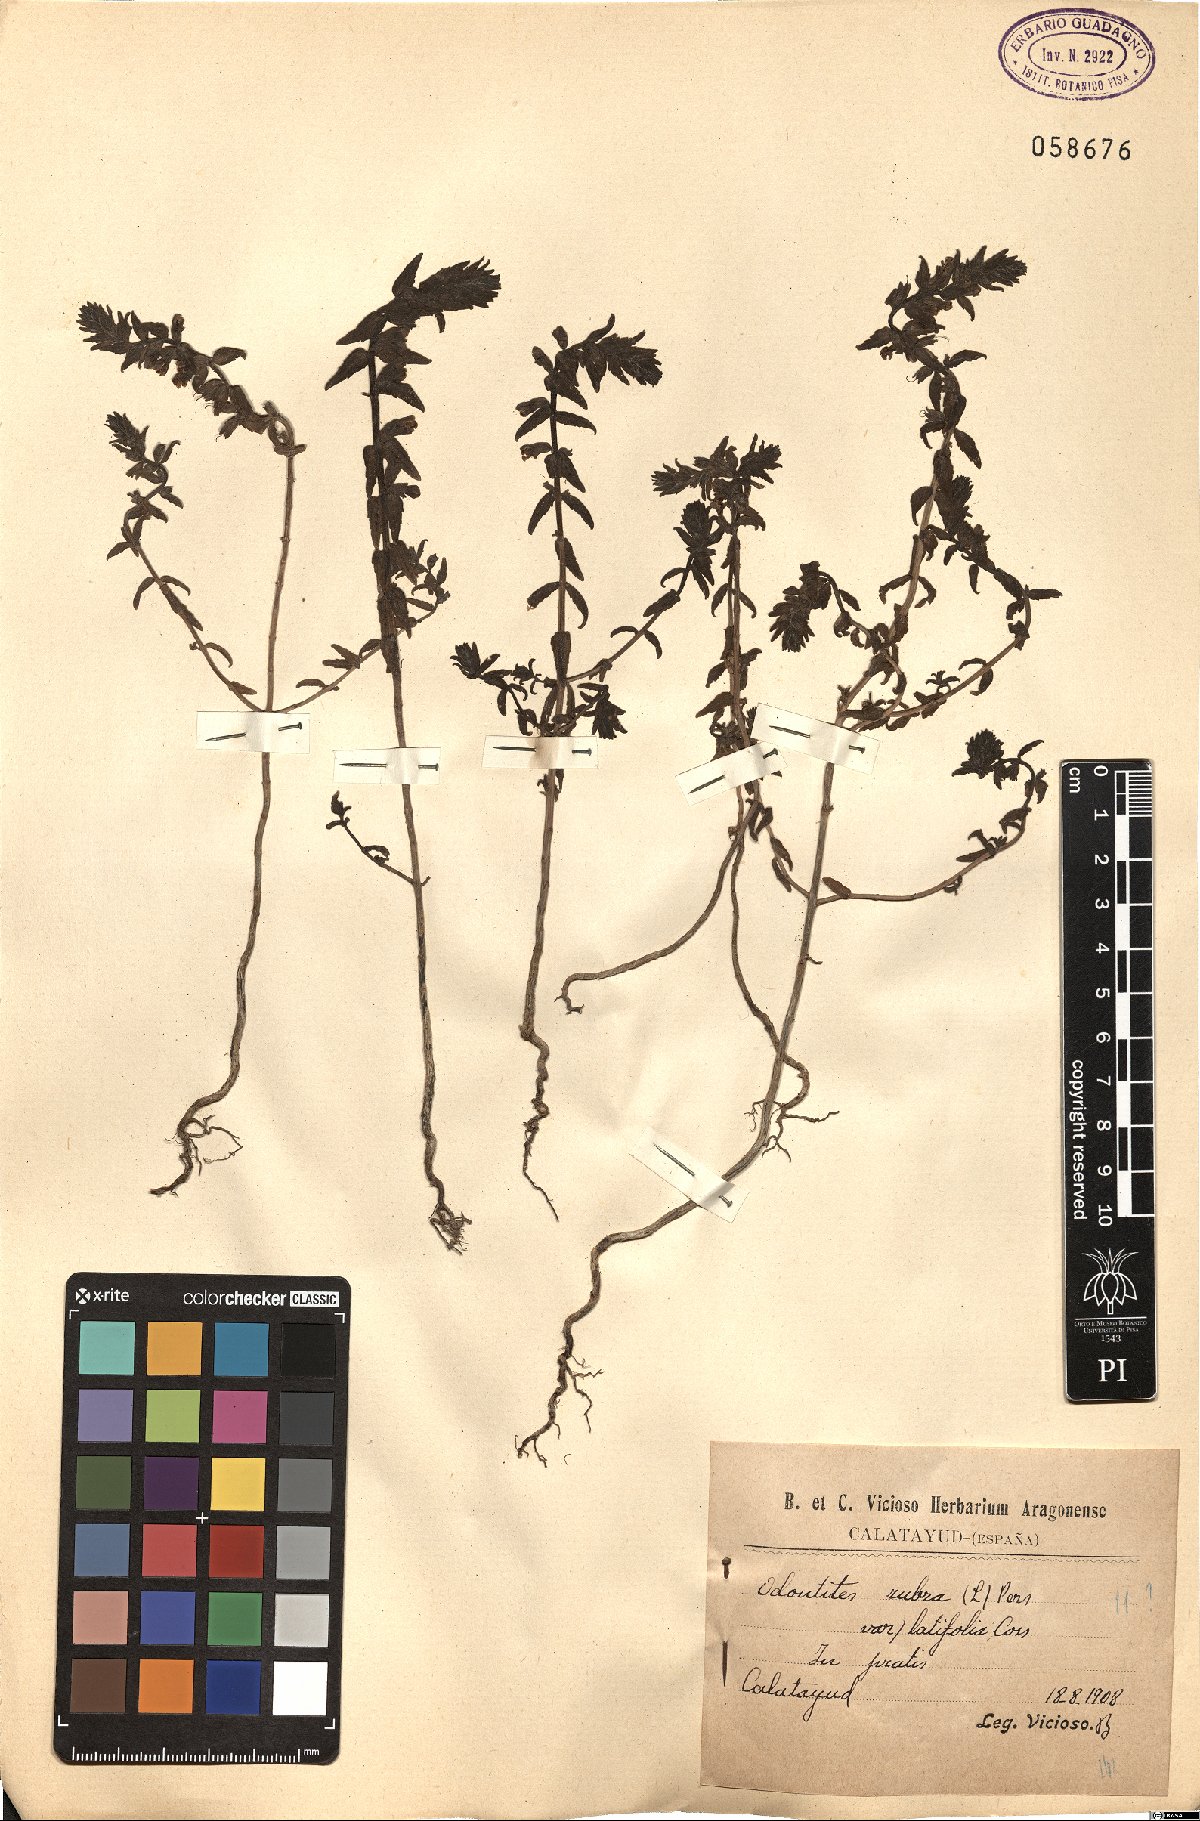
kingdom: Plantae
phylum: Tracheophyta
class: Magnoliopsida
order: Lamiales
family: Orobanchaceae
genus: Odontites
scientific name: Odontites vernus
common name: Red bartsia
